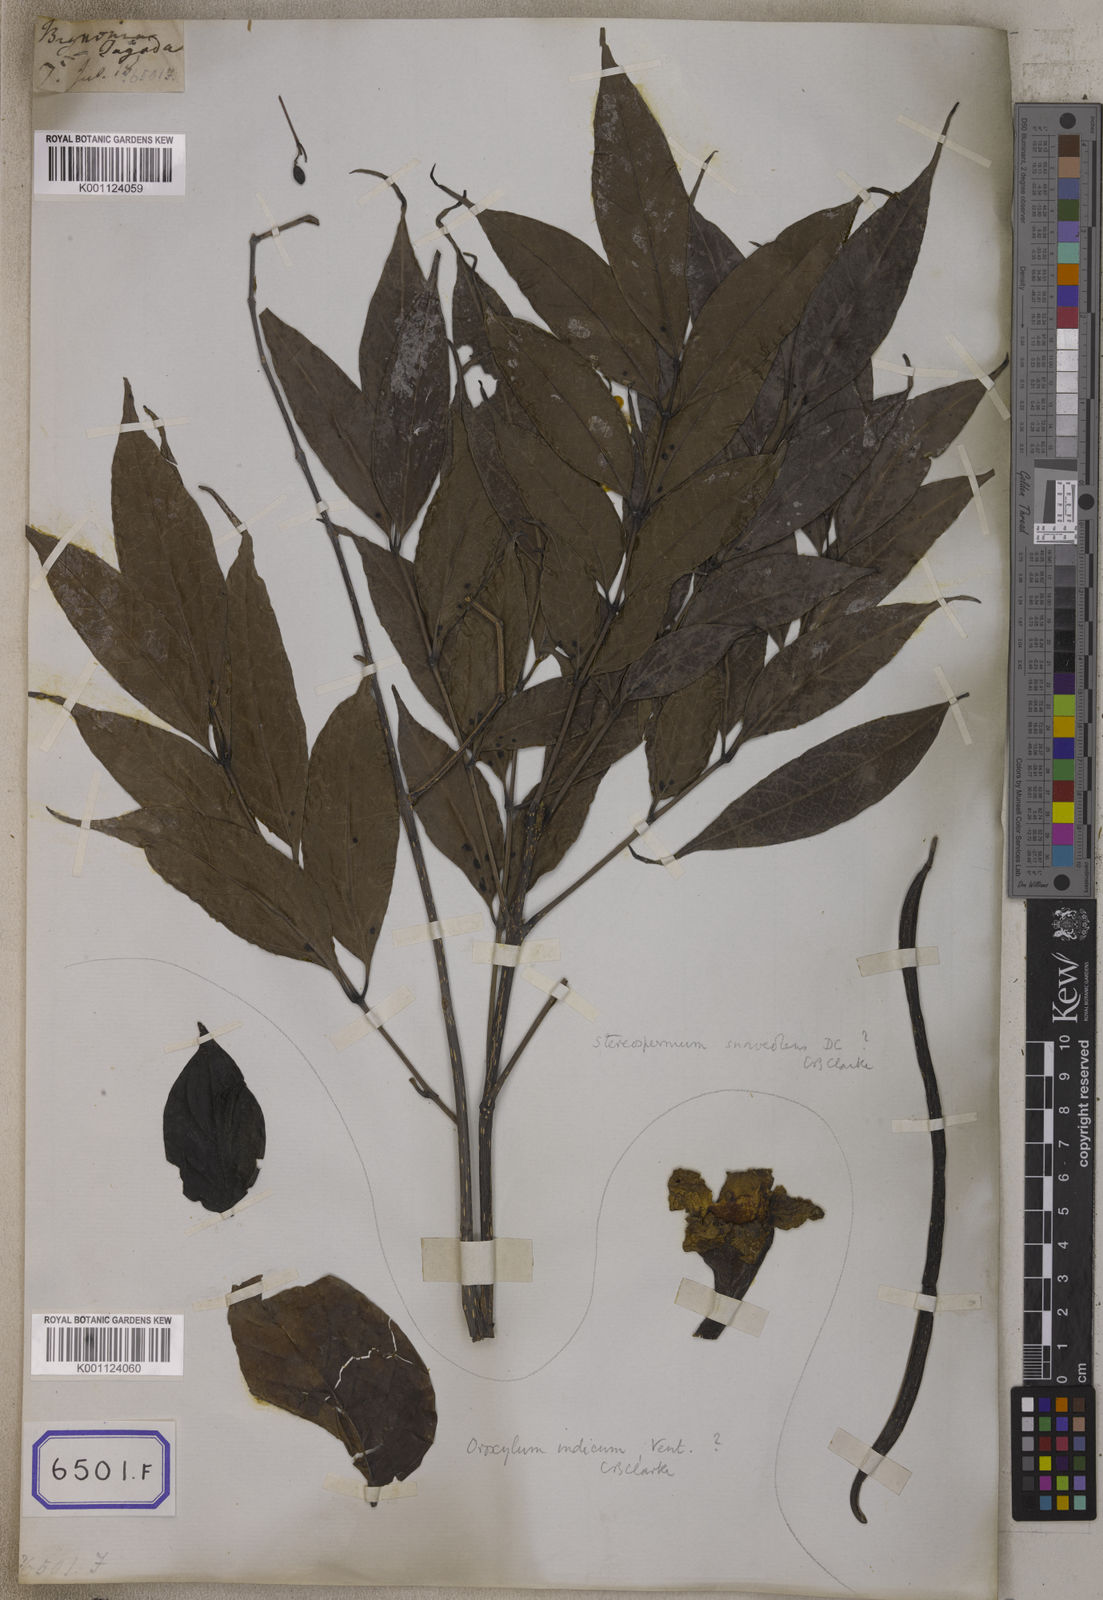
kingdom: Plantae
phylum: Tracheophyta
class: Magnoliopsida
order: Lamiales
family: Bignoniaceae
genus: Stereospermum
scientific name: Stereospermum chelonoides
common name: Fragrant padritree
